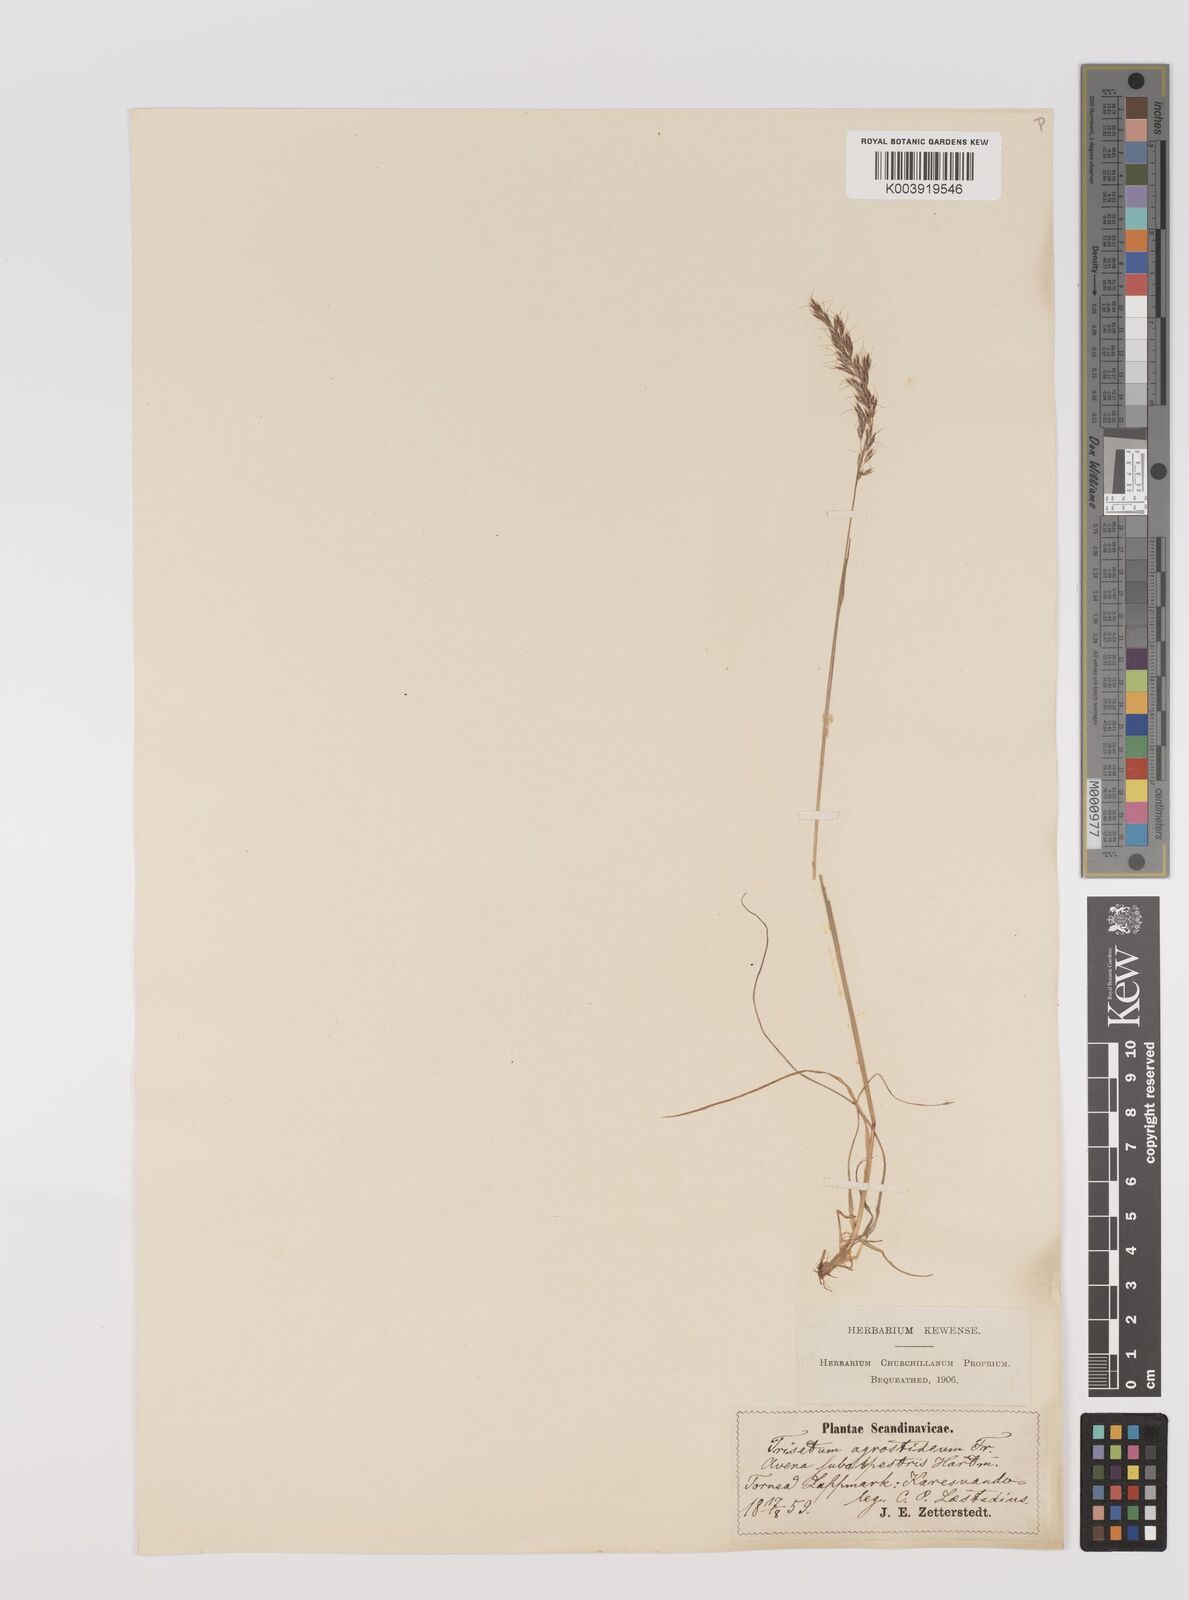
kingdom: Plantae
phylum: Tracheophyta
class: Liliopsida
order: Poales
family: Poaceae
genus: Koeleria
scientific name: Koeleria subalpestris
